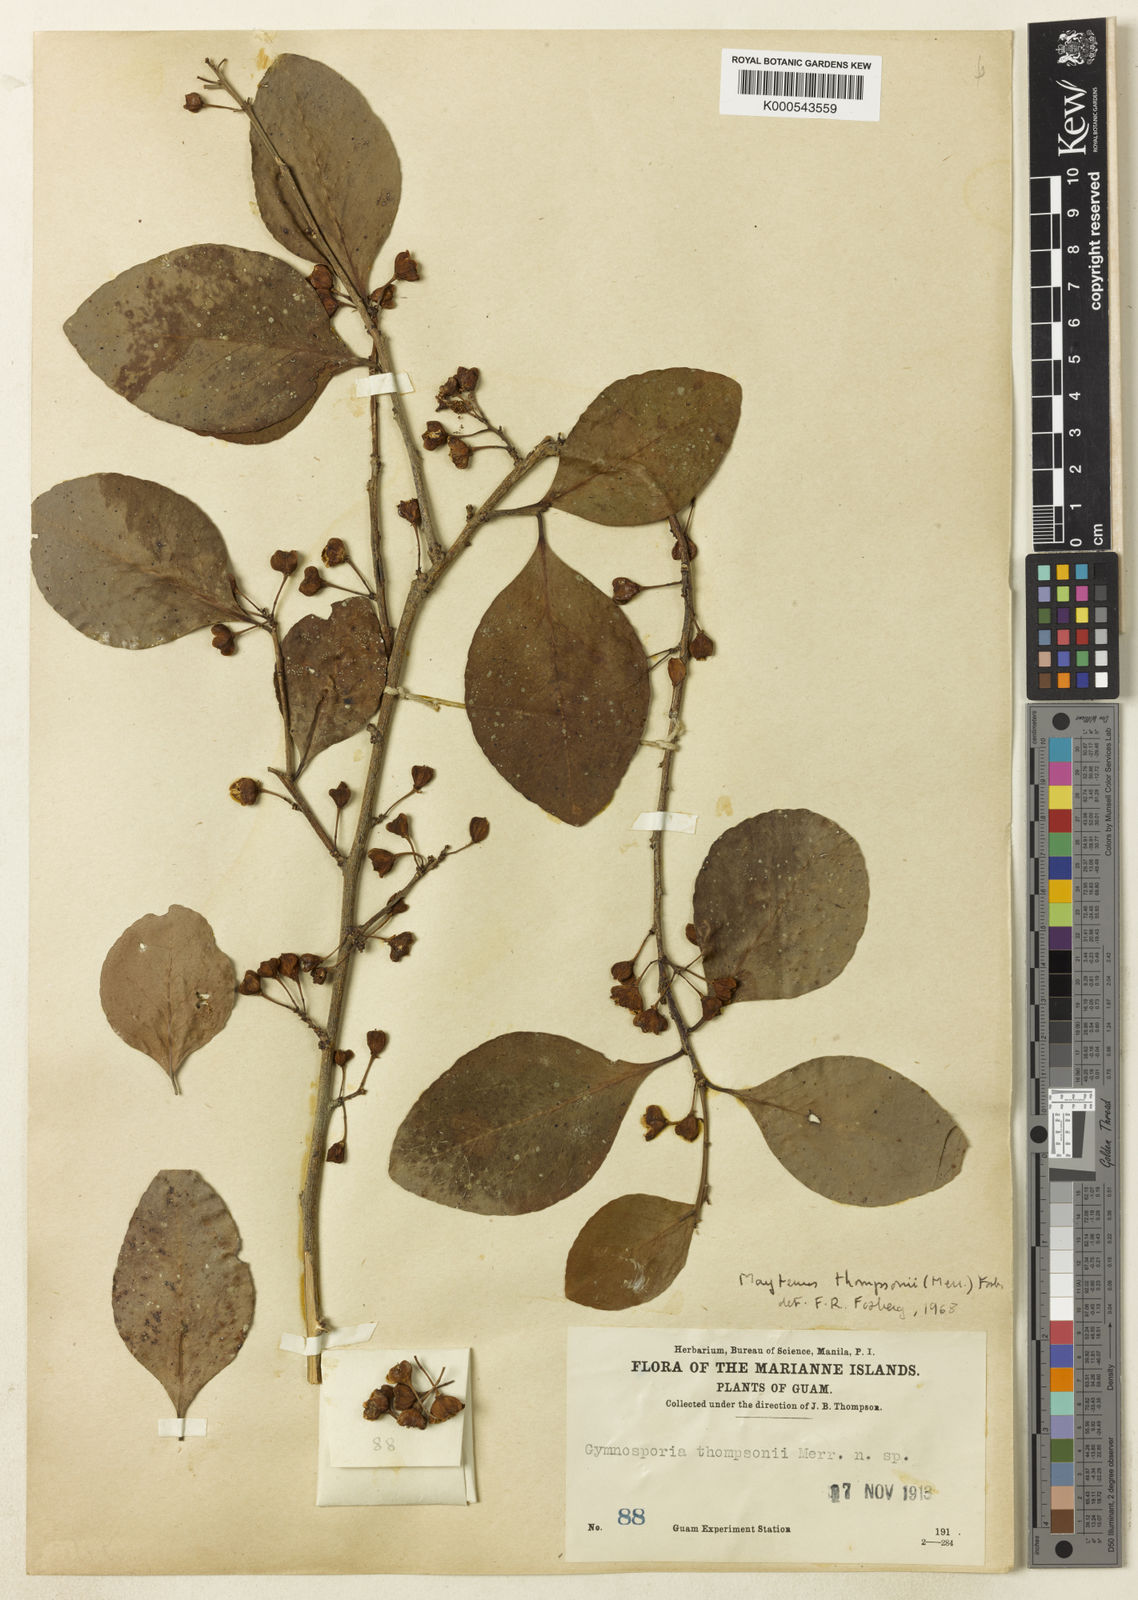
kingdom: Plantae
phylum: Tracheophyta
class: Magnoliopsida
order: Celastrales
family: Celastraceae
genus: Gymnosporia
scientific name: Gymnosporia thompsonii
